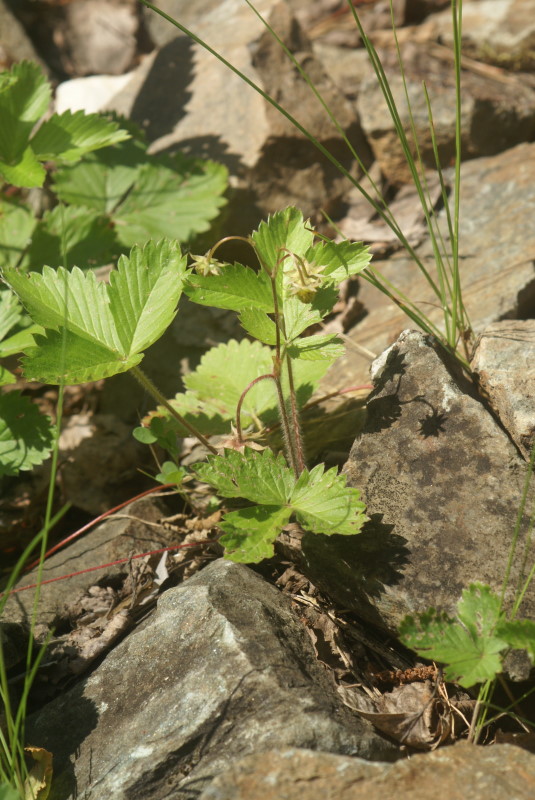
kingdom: Plantae
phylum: Tracheophyta
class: Magnoliopsida
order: Rosales
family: Rosaceae
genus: Fragaria
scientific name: Fragaria vesca
